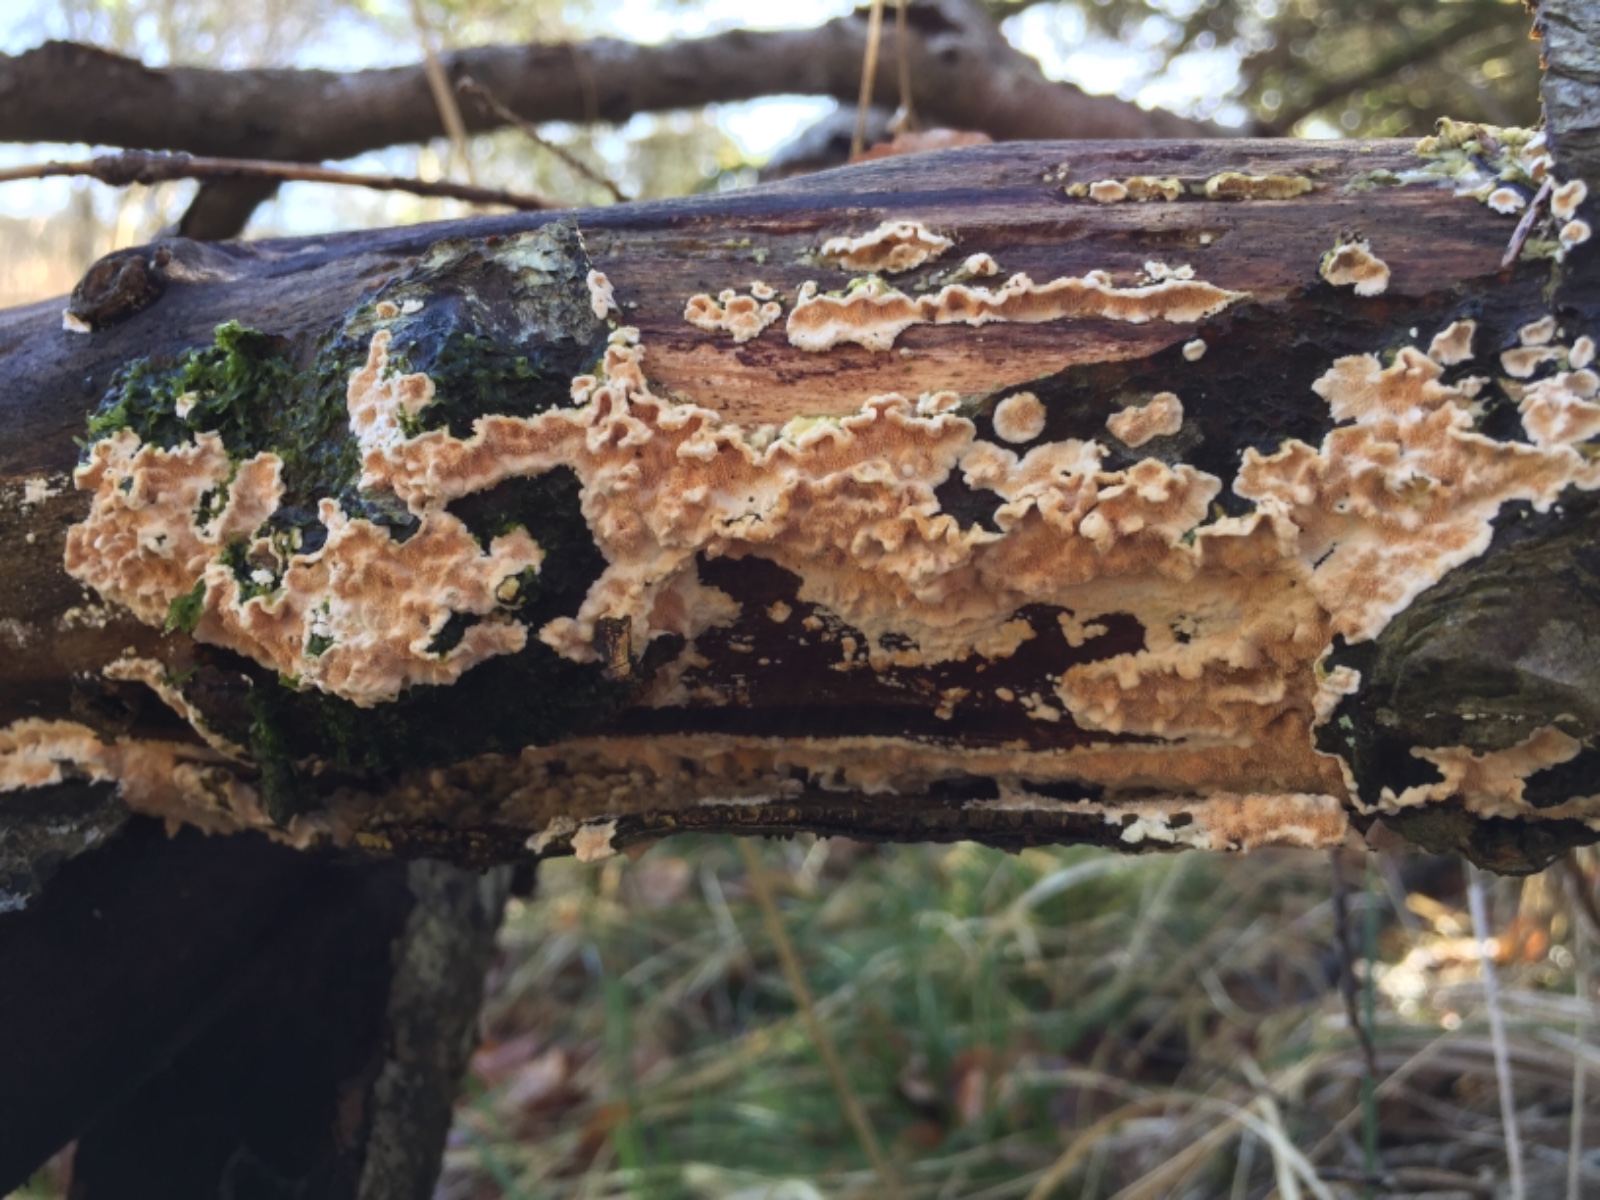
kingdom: Fungi
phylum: Basidiomycota
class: Agaricomycetes
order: Polyporales
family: Steccherinaceae
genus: Steccherinum
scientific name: Steccherinum ochraceum
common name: almindelig skønpig
